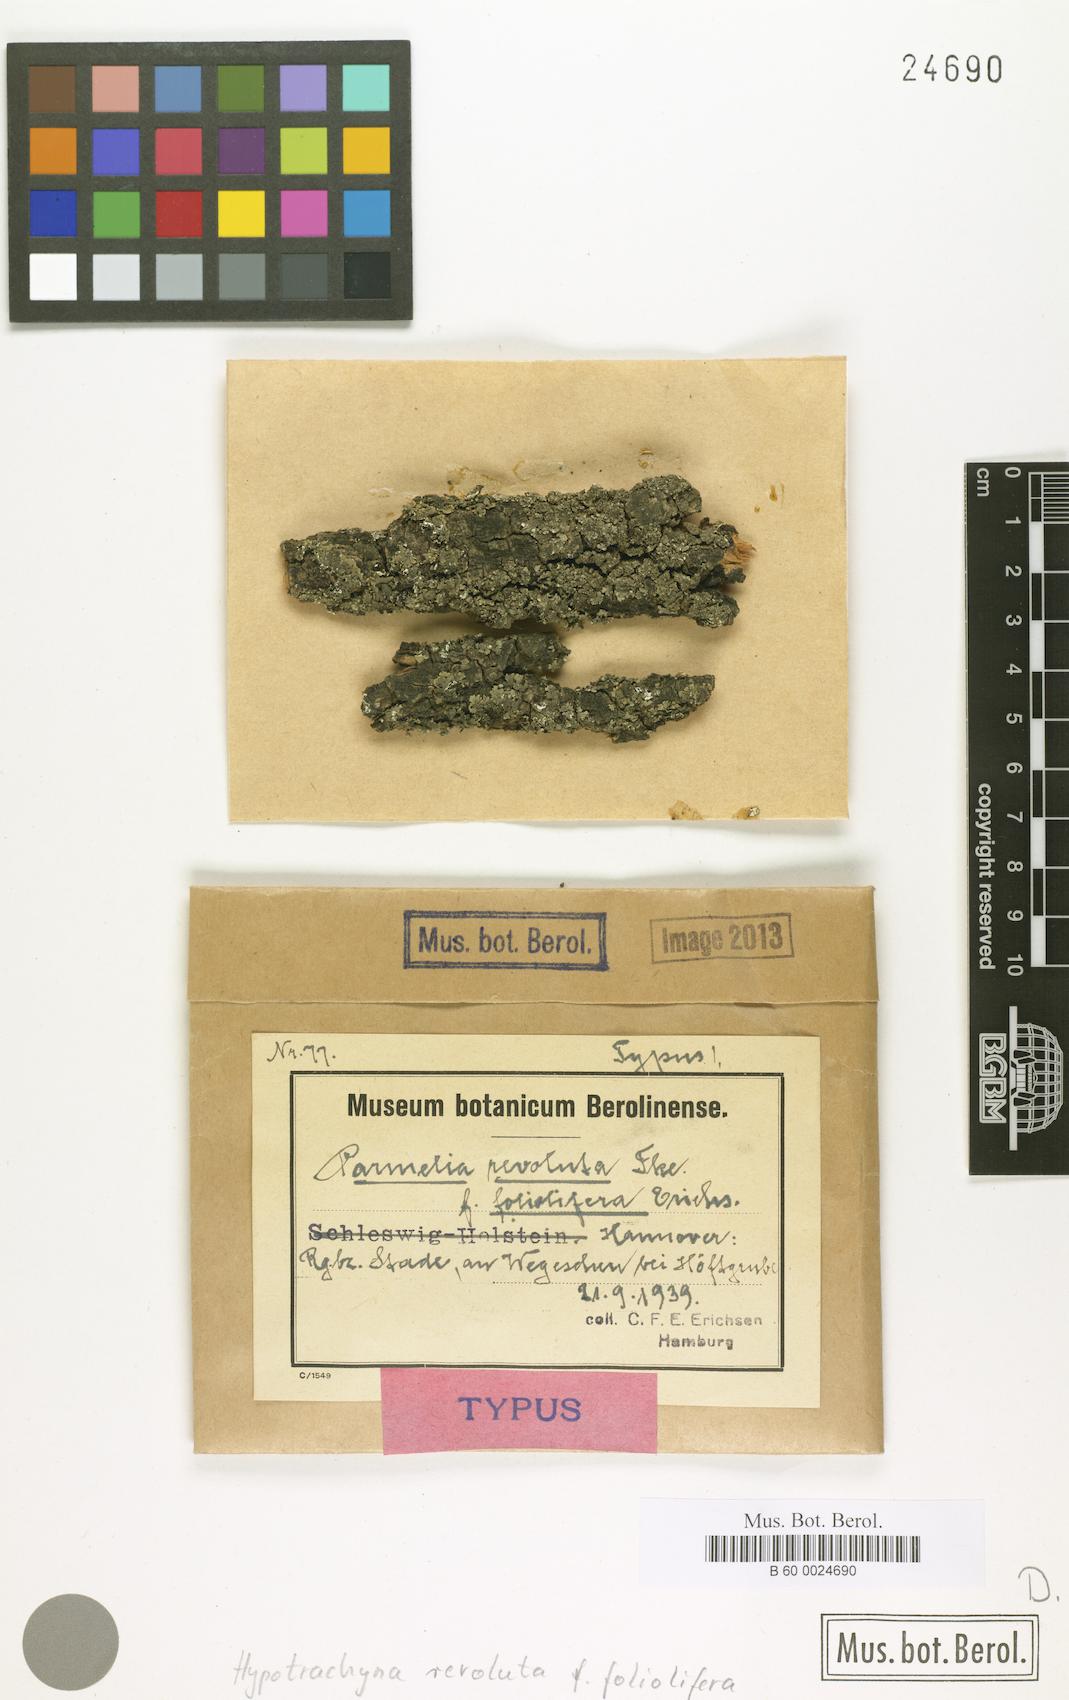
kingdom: Fungi
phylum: Ascomycota
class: Lecanoromycetes
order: Lecanorales
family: Parmeliaceae
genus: Hypotrachyna
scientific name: Hypotrachyna revoluta
